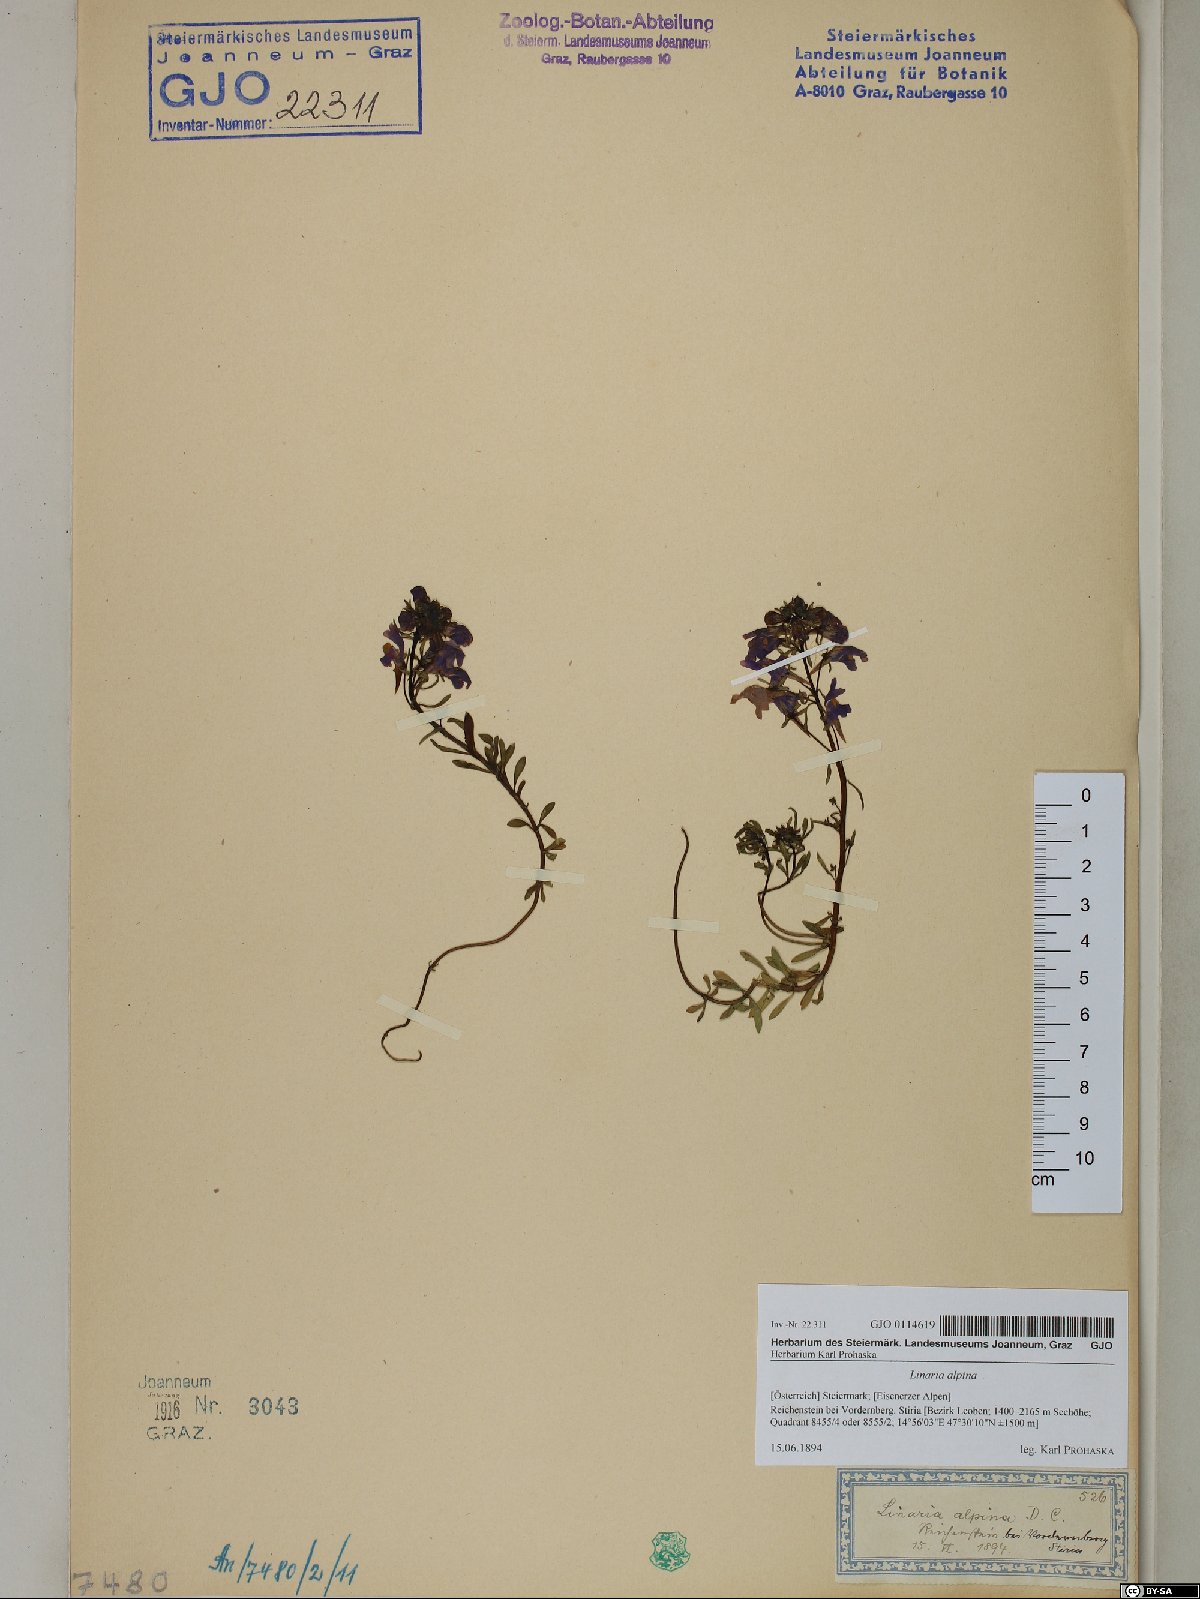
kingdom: Plantae
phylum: Tracheophyta
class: Magnoliopsida
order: Lamiales
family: Plantaginaceae
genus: Linaria
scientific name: Linaria alpina
